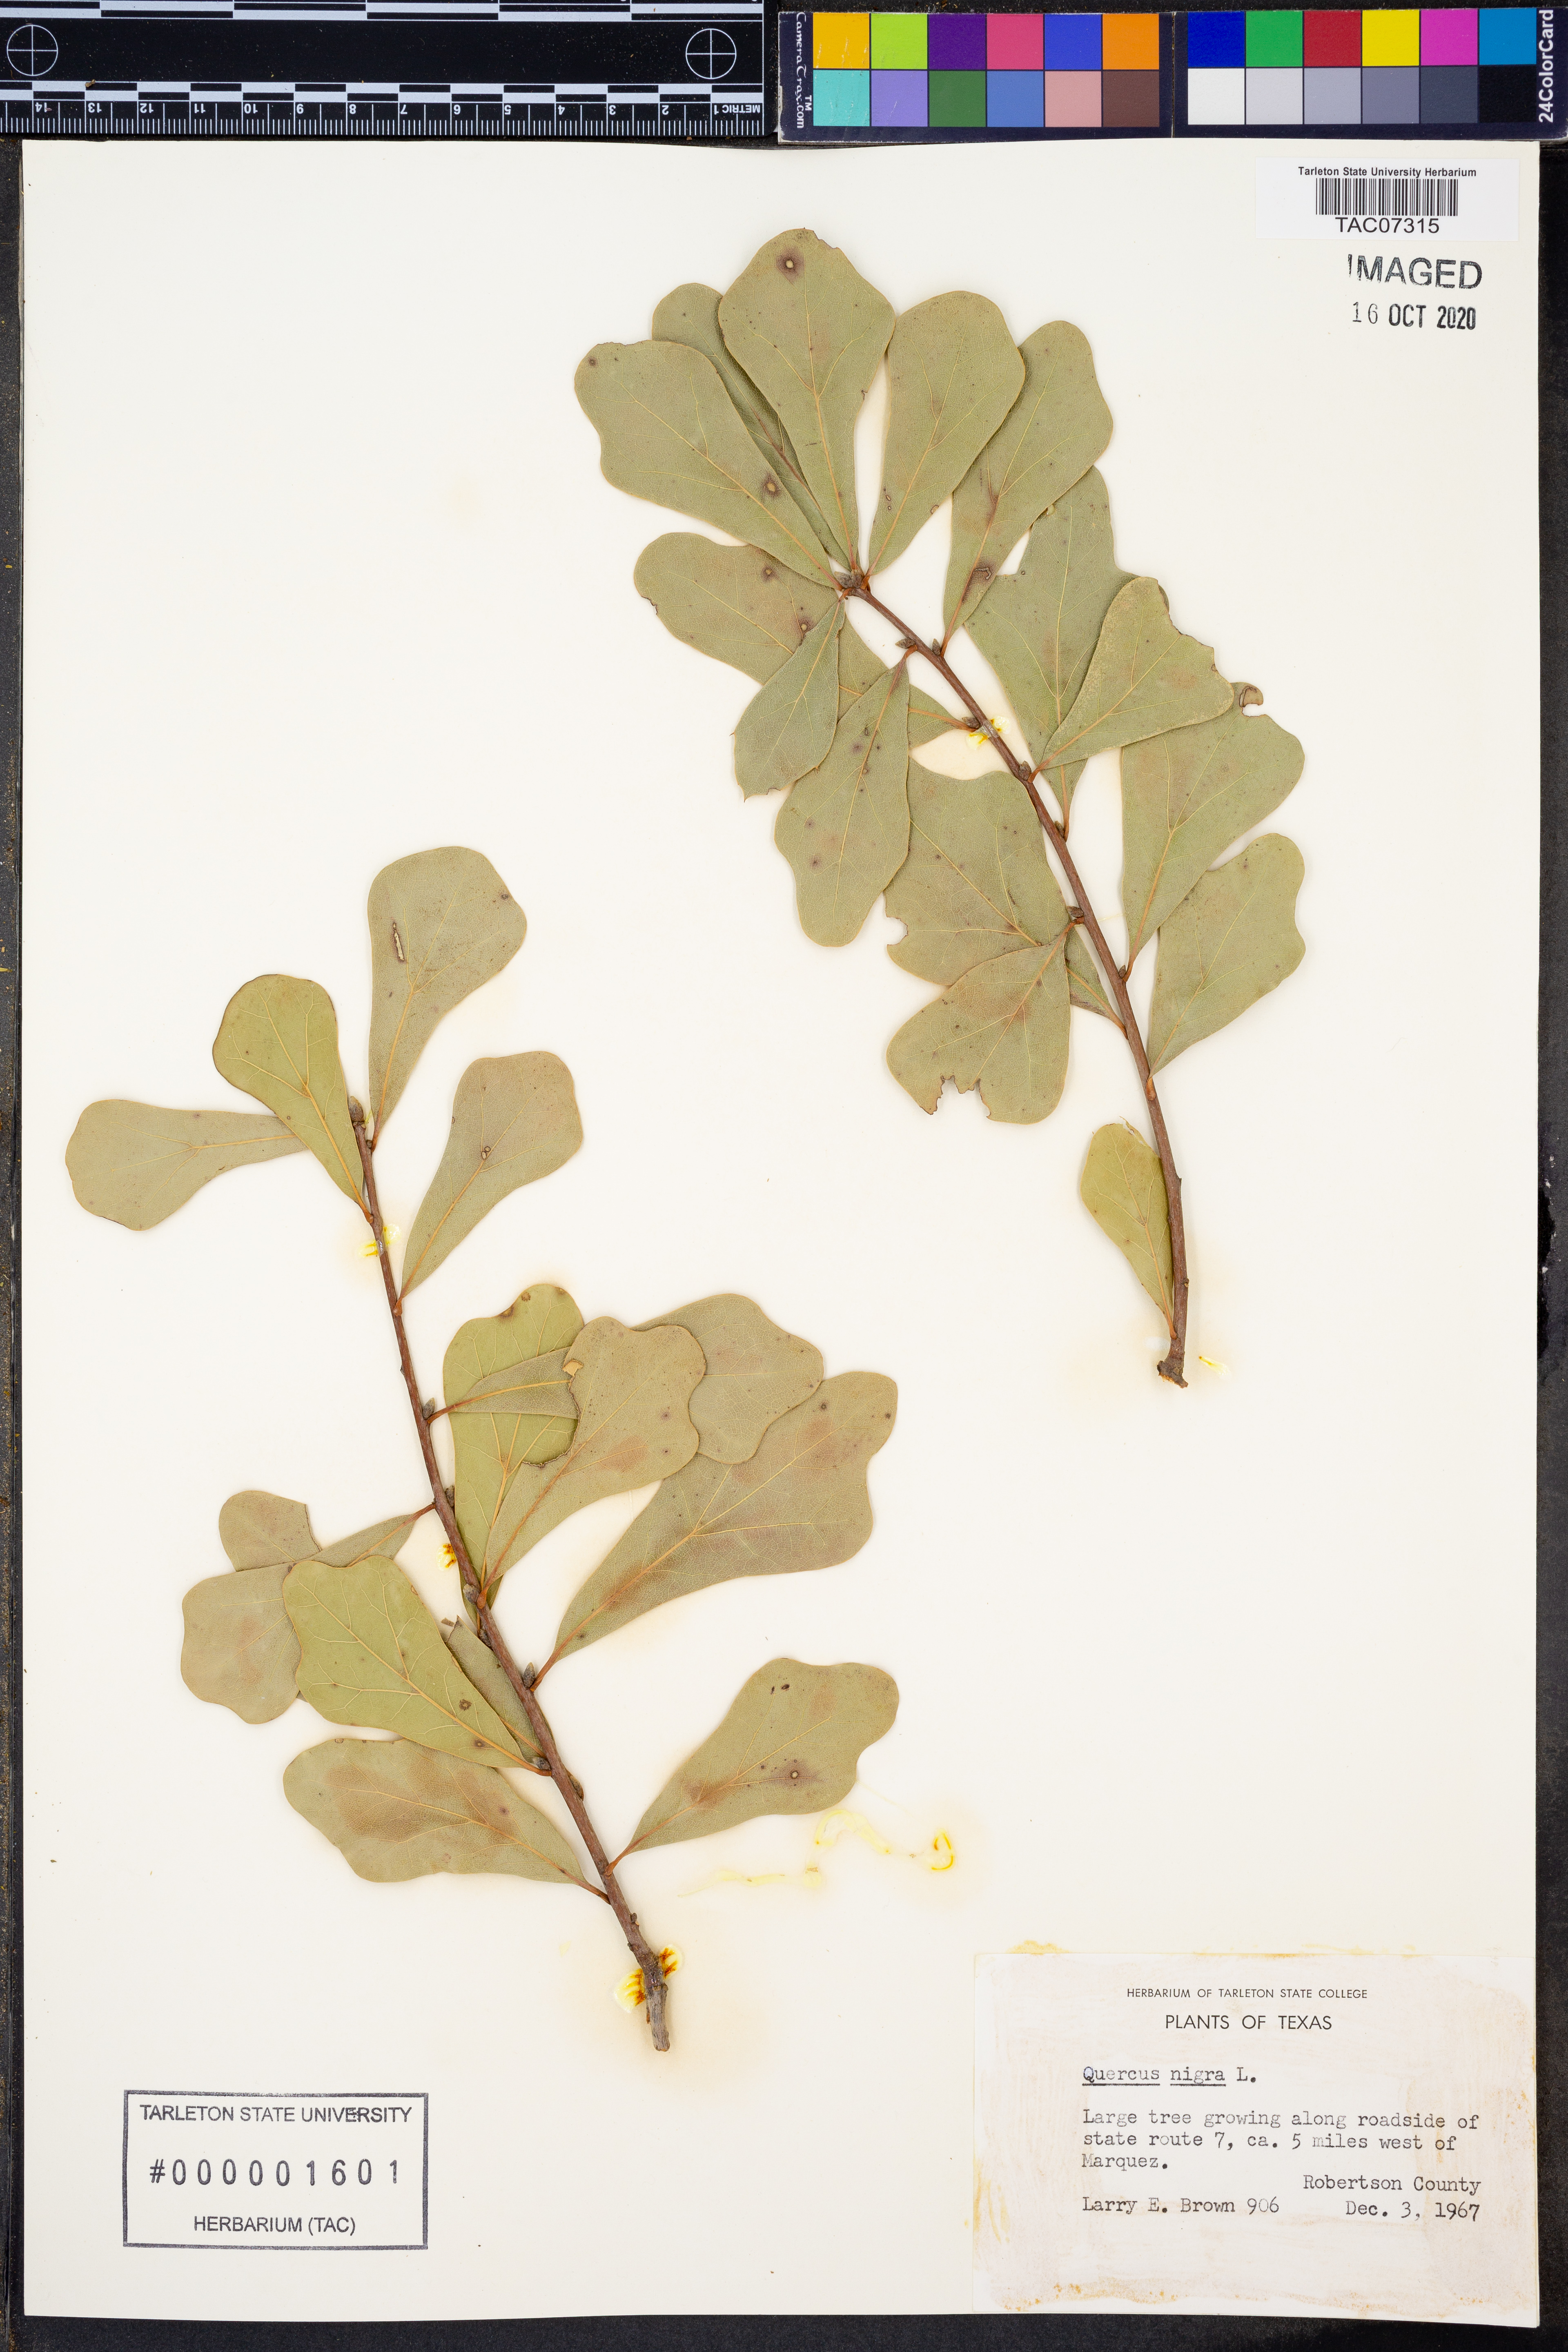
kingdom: Plantae
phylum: Tracheophyta
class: Magnoliopsida
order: Fagales
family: Fagaceae
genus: Quercus
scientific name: Quercus nigra
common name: Water oak
